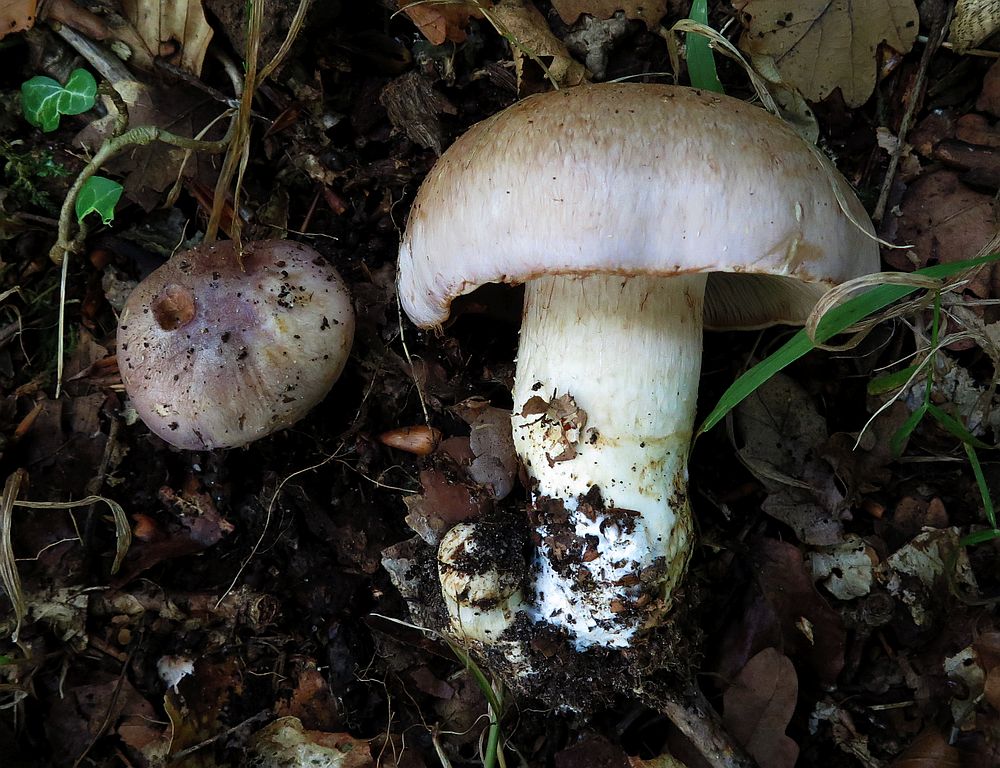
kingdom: Fungi
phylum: Basidiomycota
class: Agaricomycetes
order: Agaricales
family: Cortinariaceae
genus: Phlegmacium
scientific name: Phlegmacium chromataphilum
